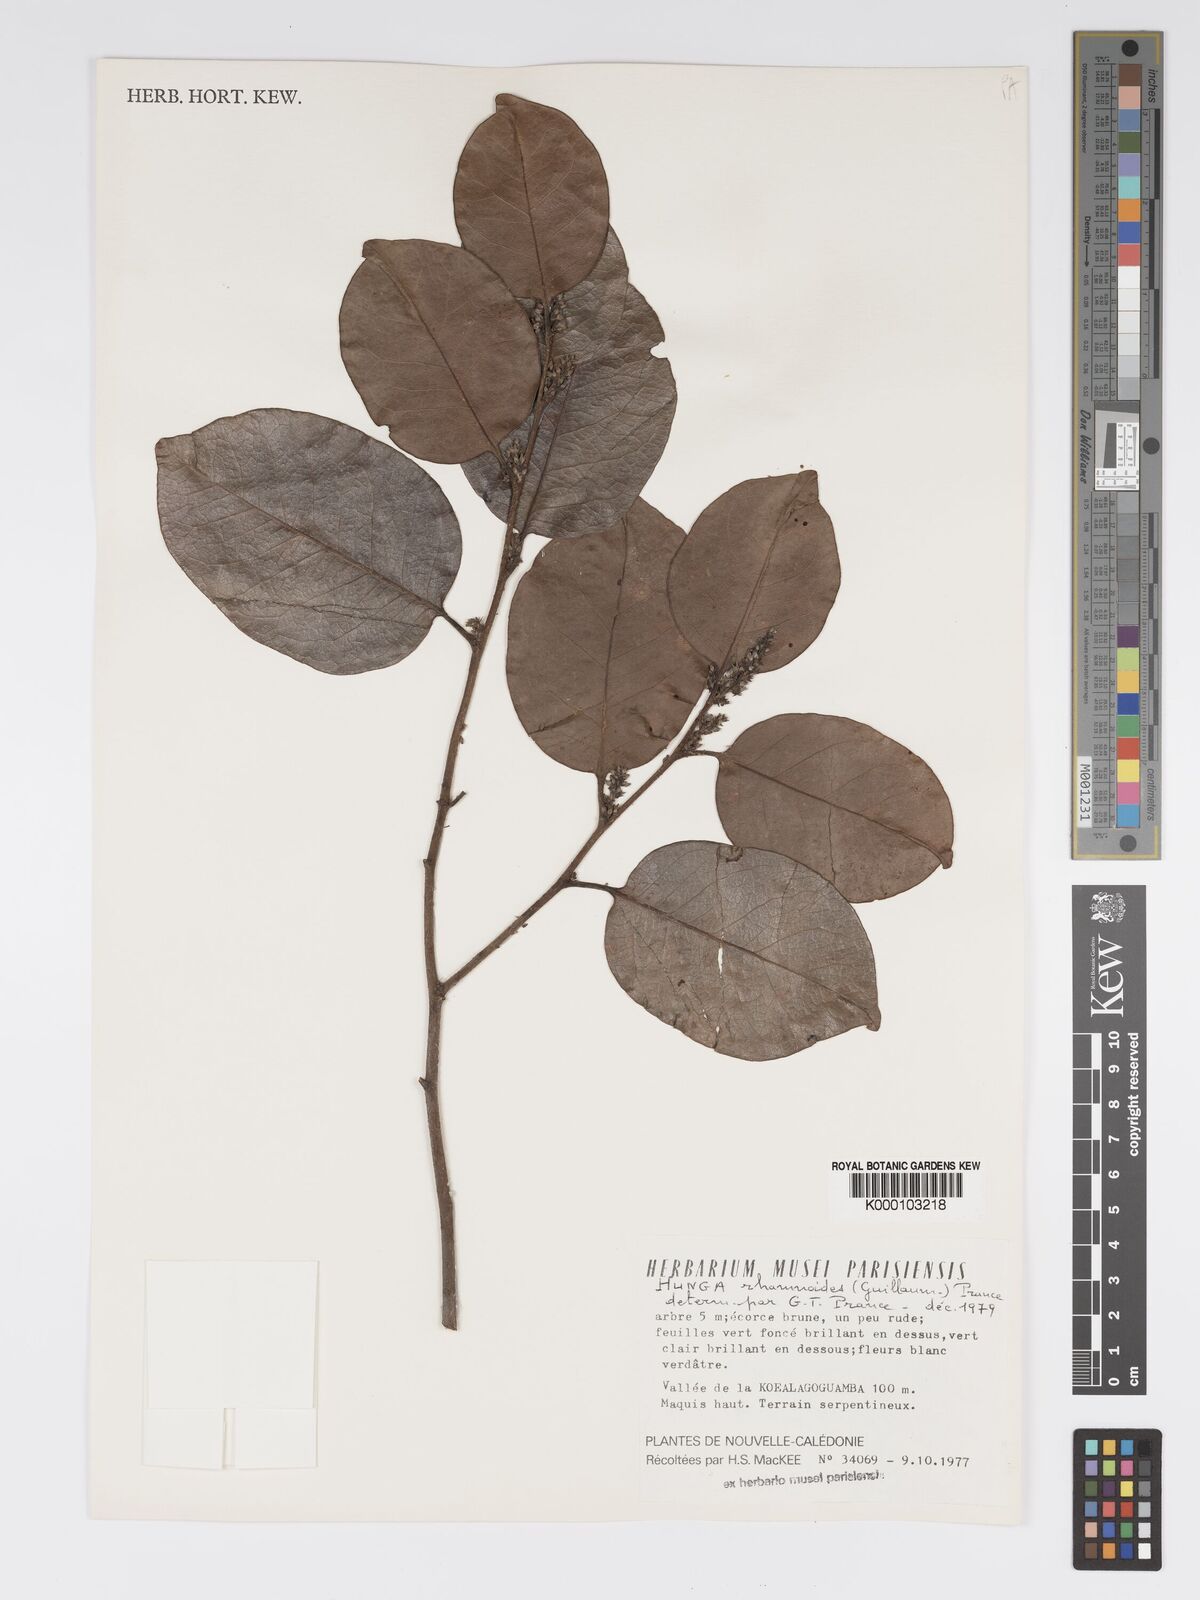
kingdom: Plantae
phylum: Tracheophyta
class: Magnoliopsida
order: Malpighiales
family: Chrysobalanaceae
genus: Hunga
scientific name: Hunga rhamnoides
